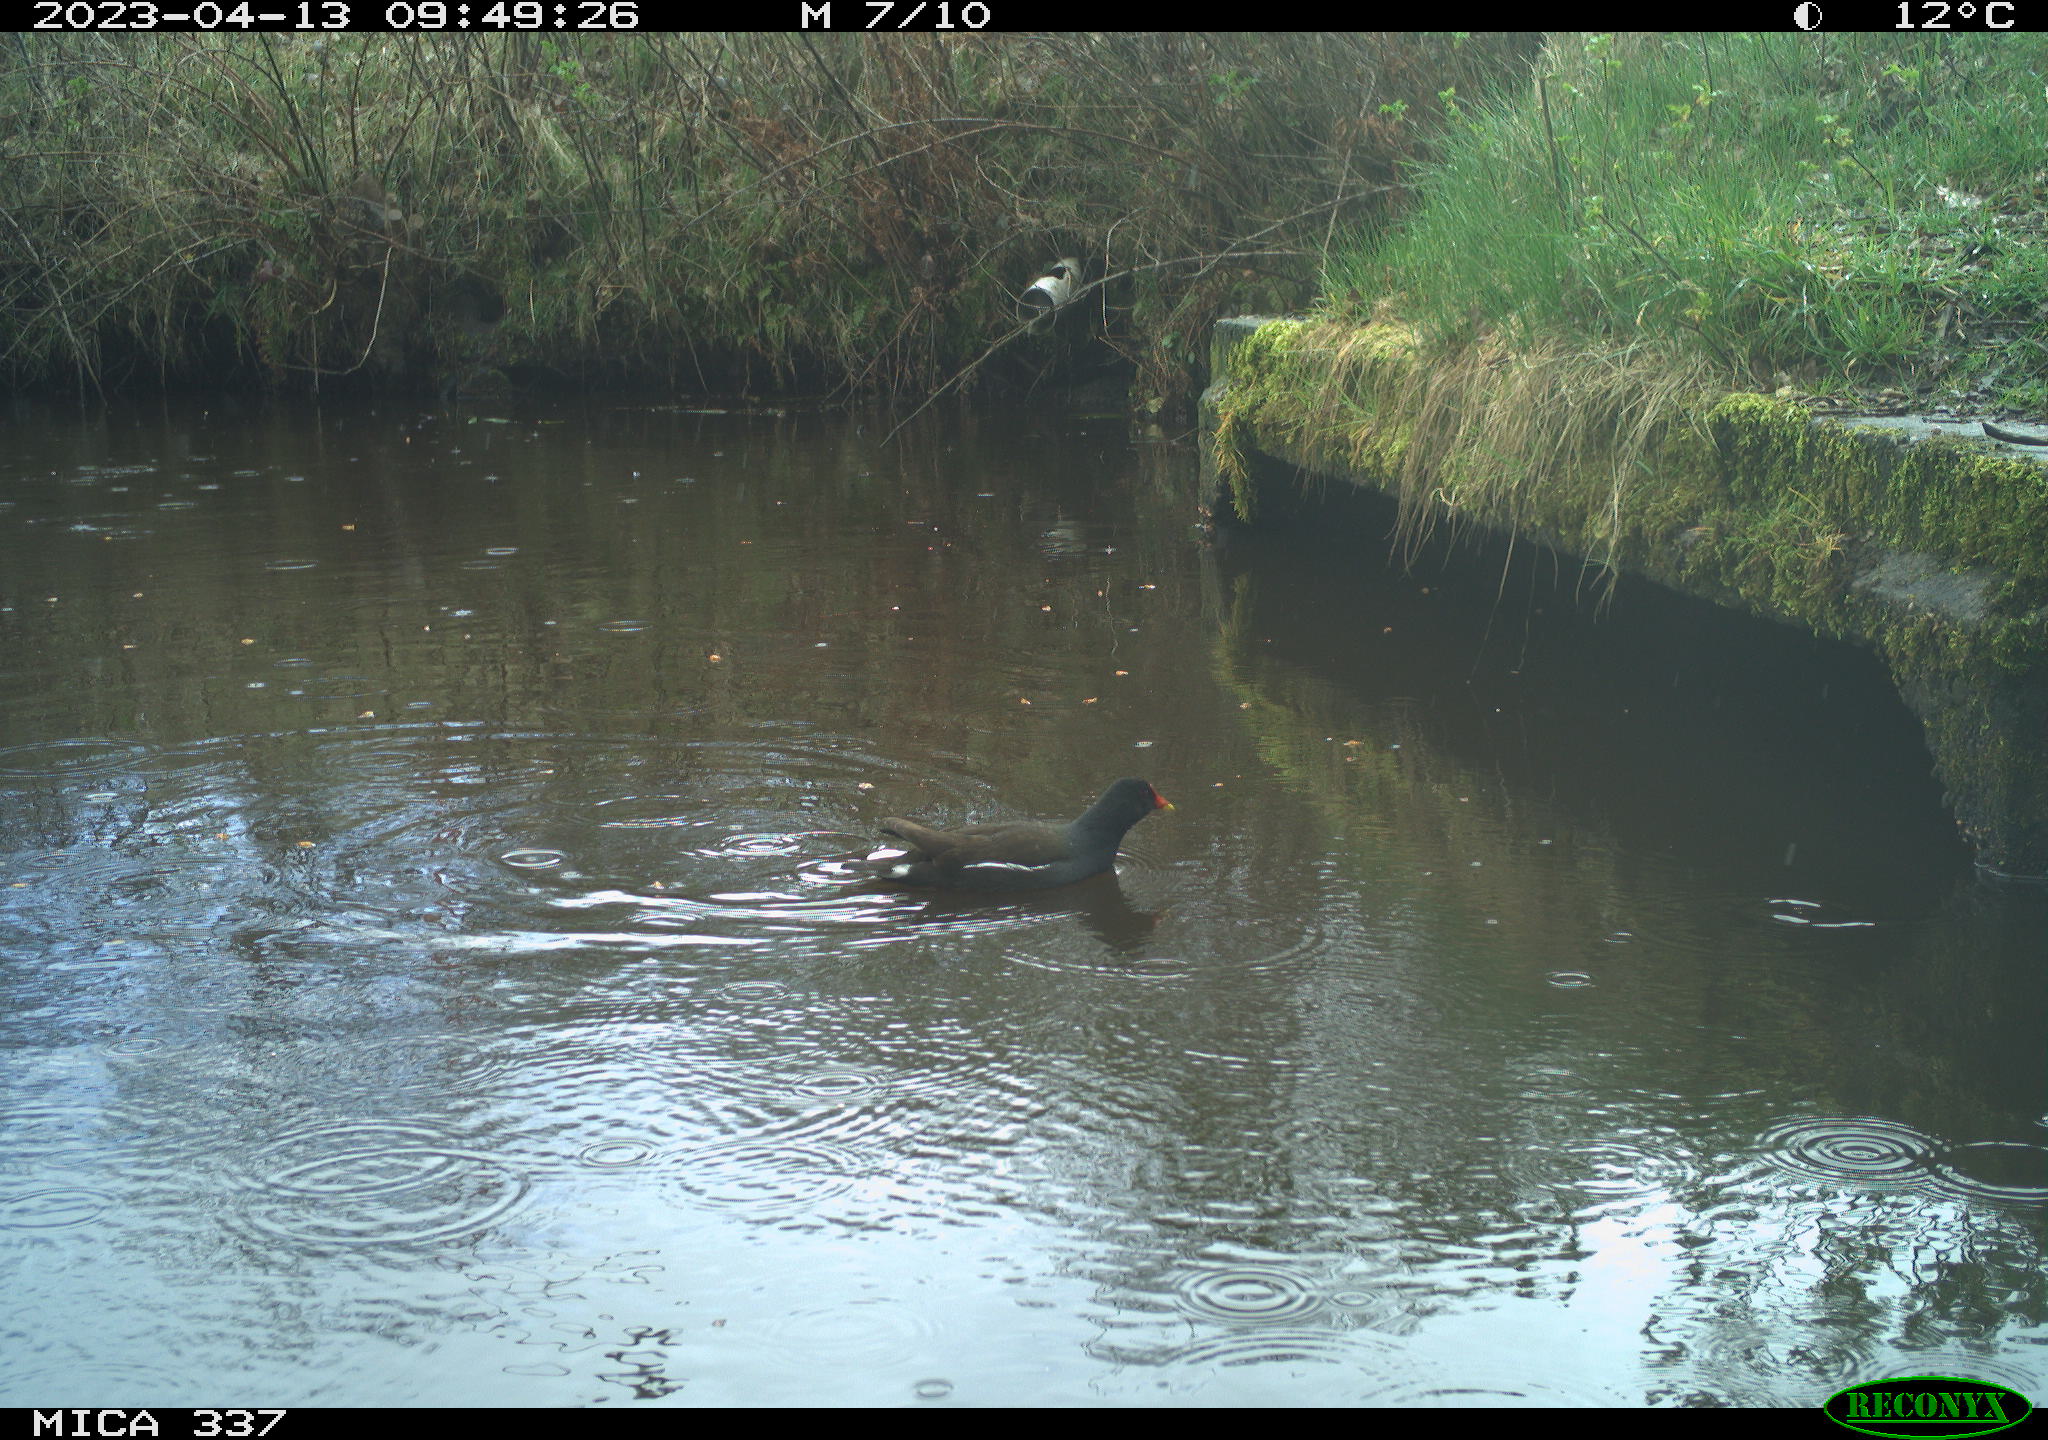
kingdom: Animalia
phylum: Chordata
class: Aves
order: Gruiformes
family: Rallidae
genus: Gallinula
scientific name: Gallinula chloropus
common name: Common moorhen
